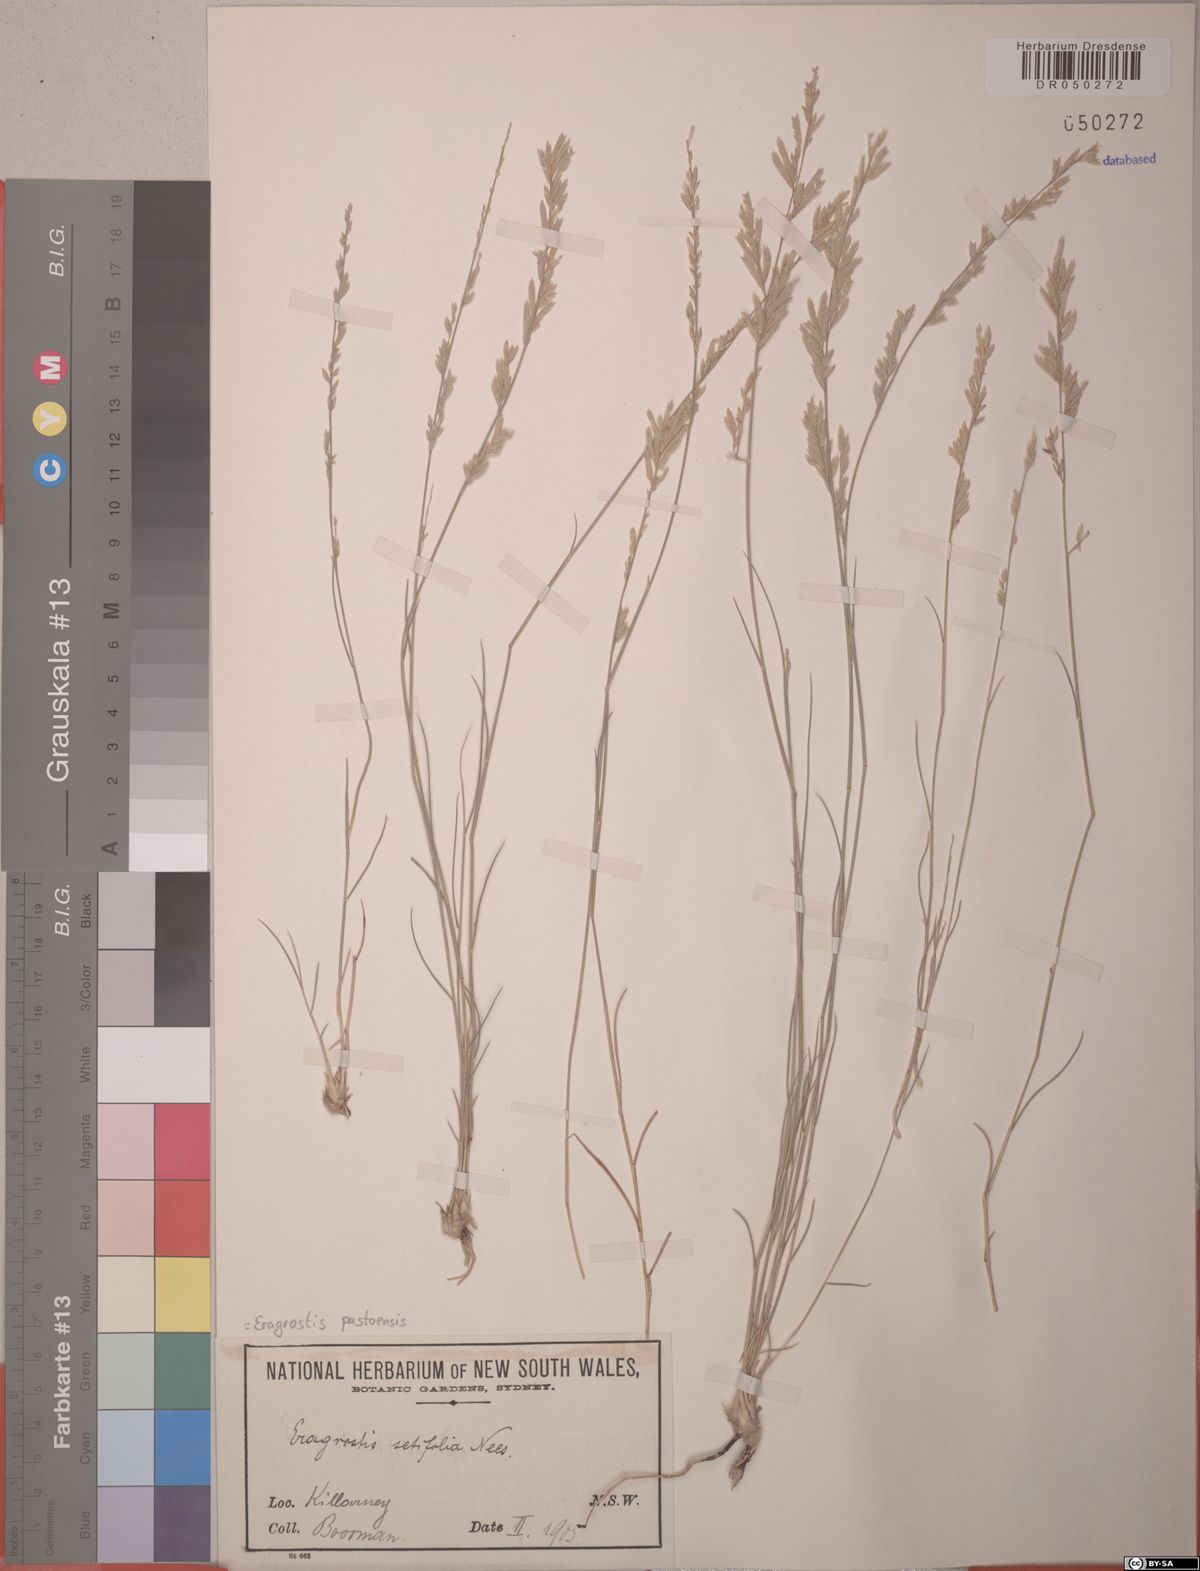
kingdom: Plantae
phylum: Tracheophyta
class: Liliopsida
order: Poales
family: Poaceae
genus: Eragrostis
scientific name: Eragrostis pastoensis
